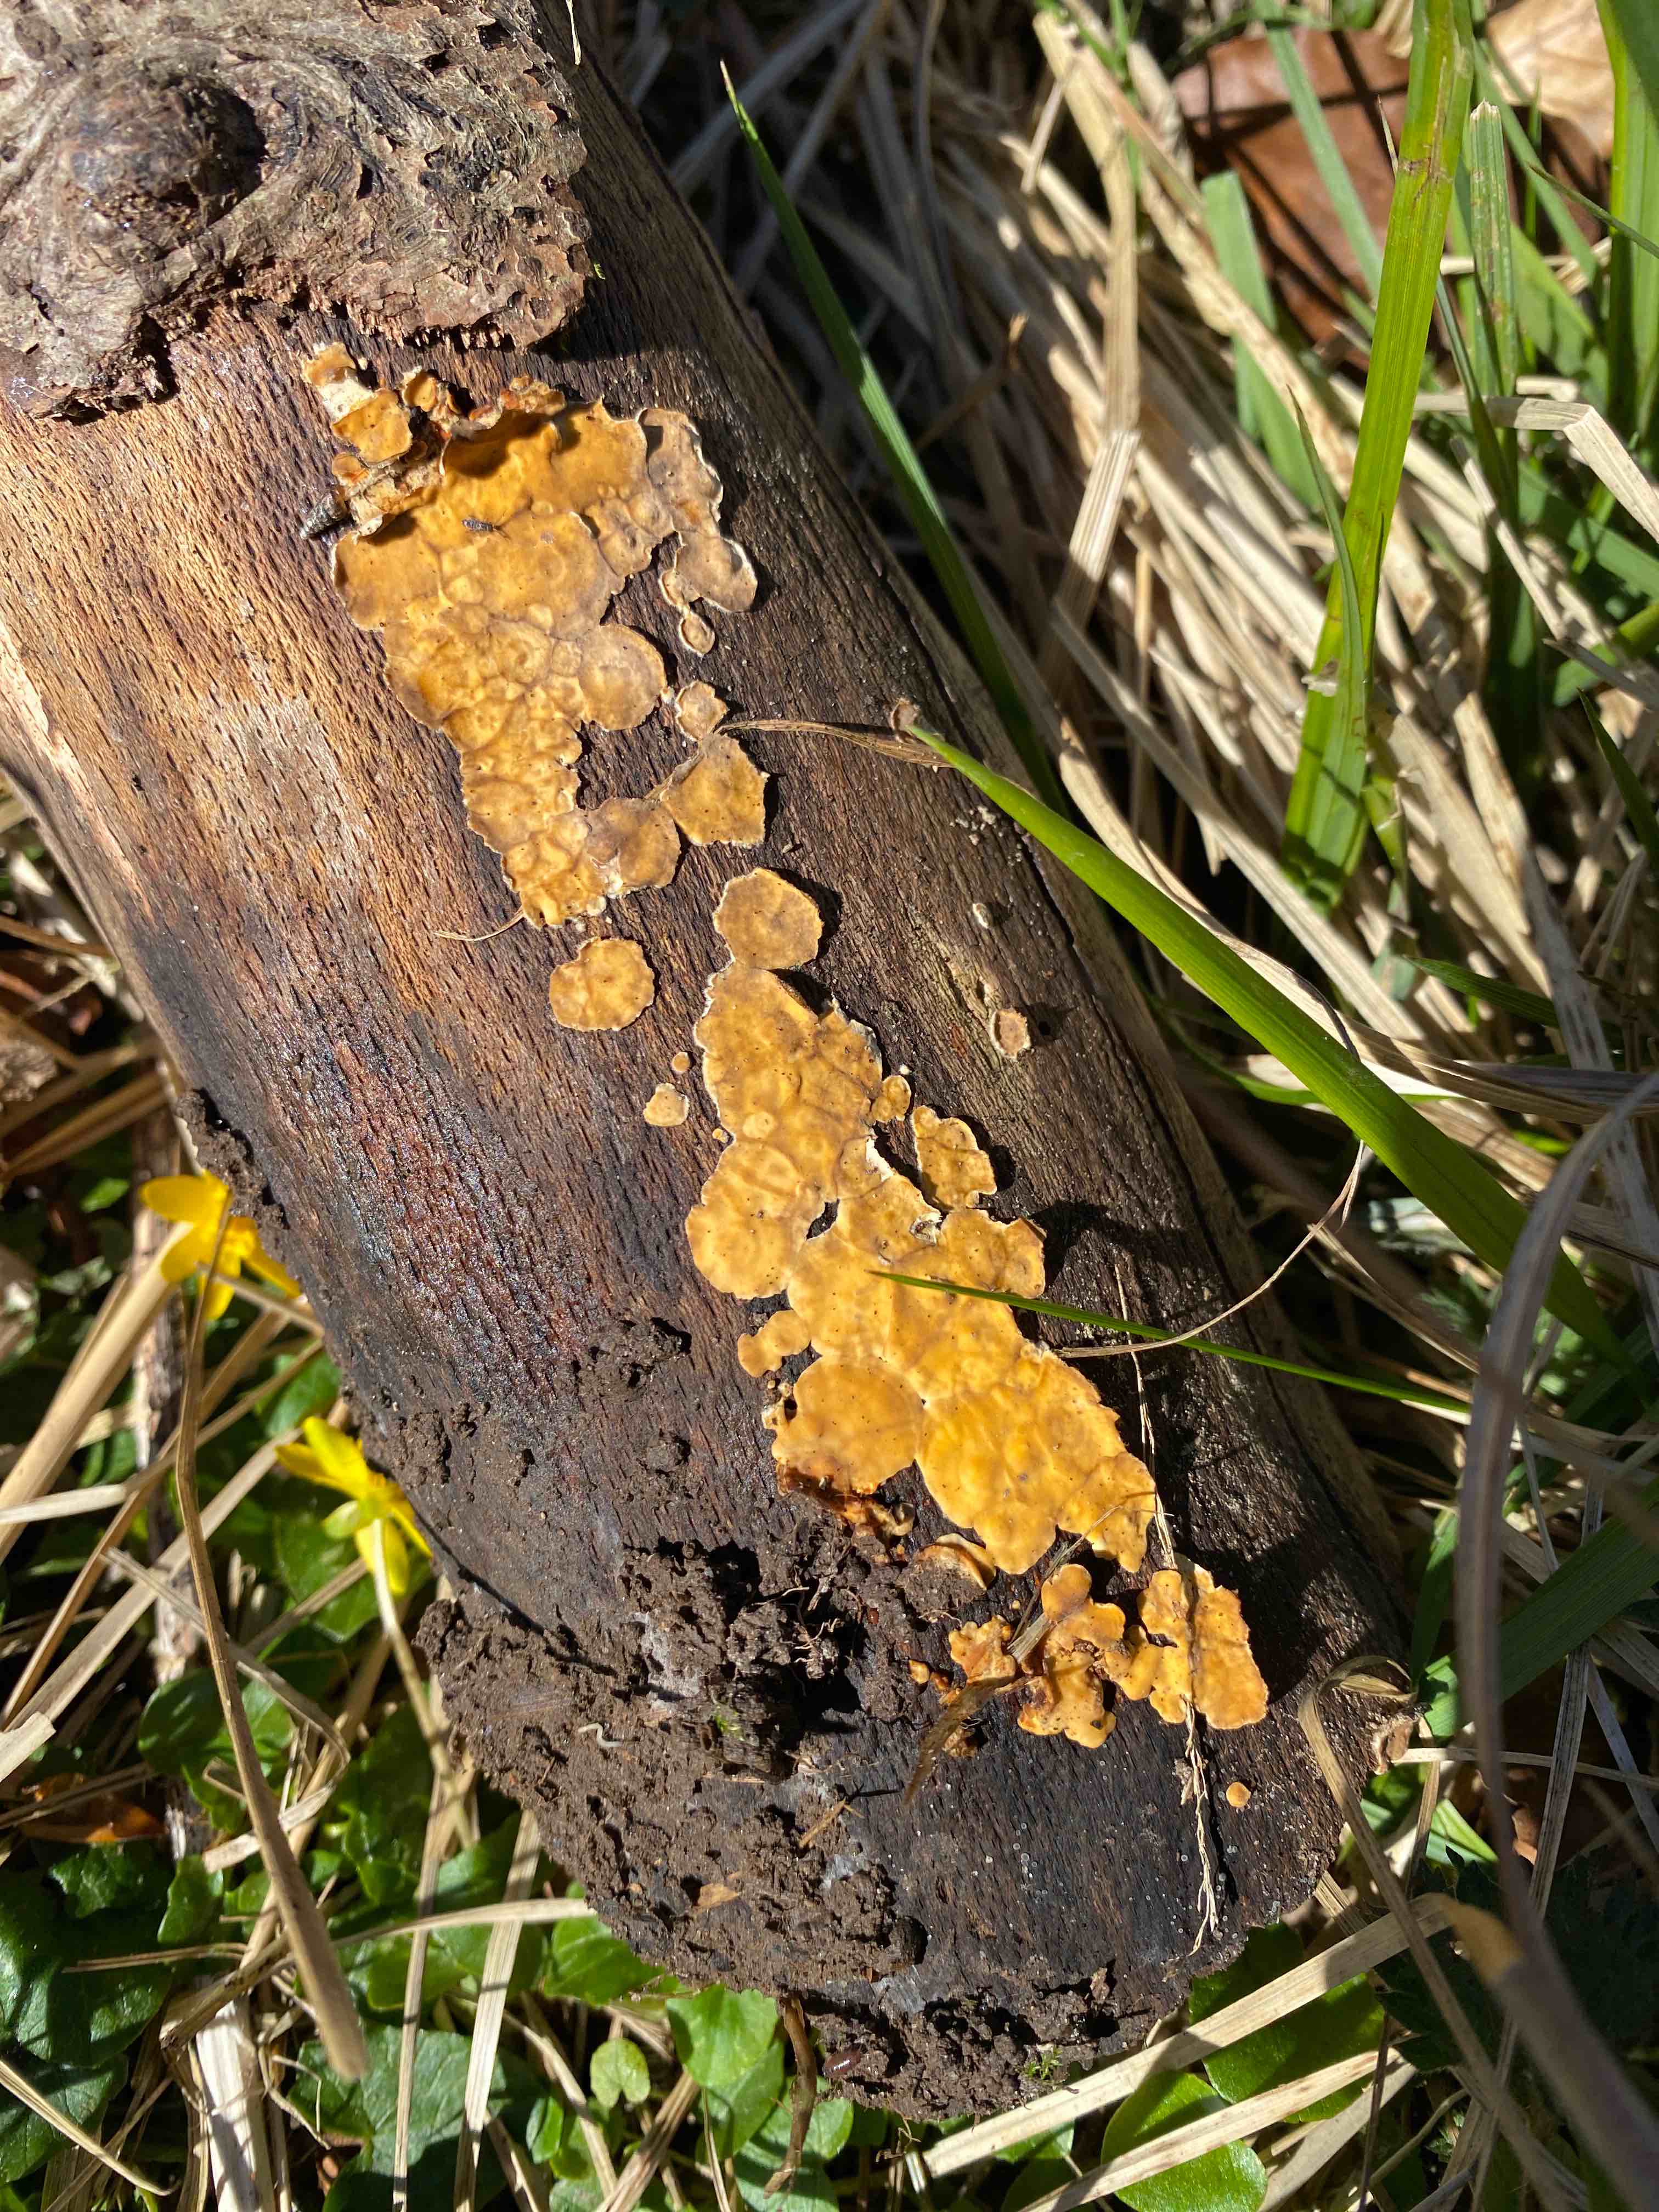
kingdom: Fungi
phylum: Basidiomycota
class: Agaricomycetes
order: Russulales
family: Stereaceae
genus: Stereum
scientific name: Stereum hirsutum
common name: håret lædersvamp
